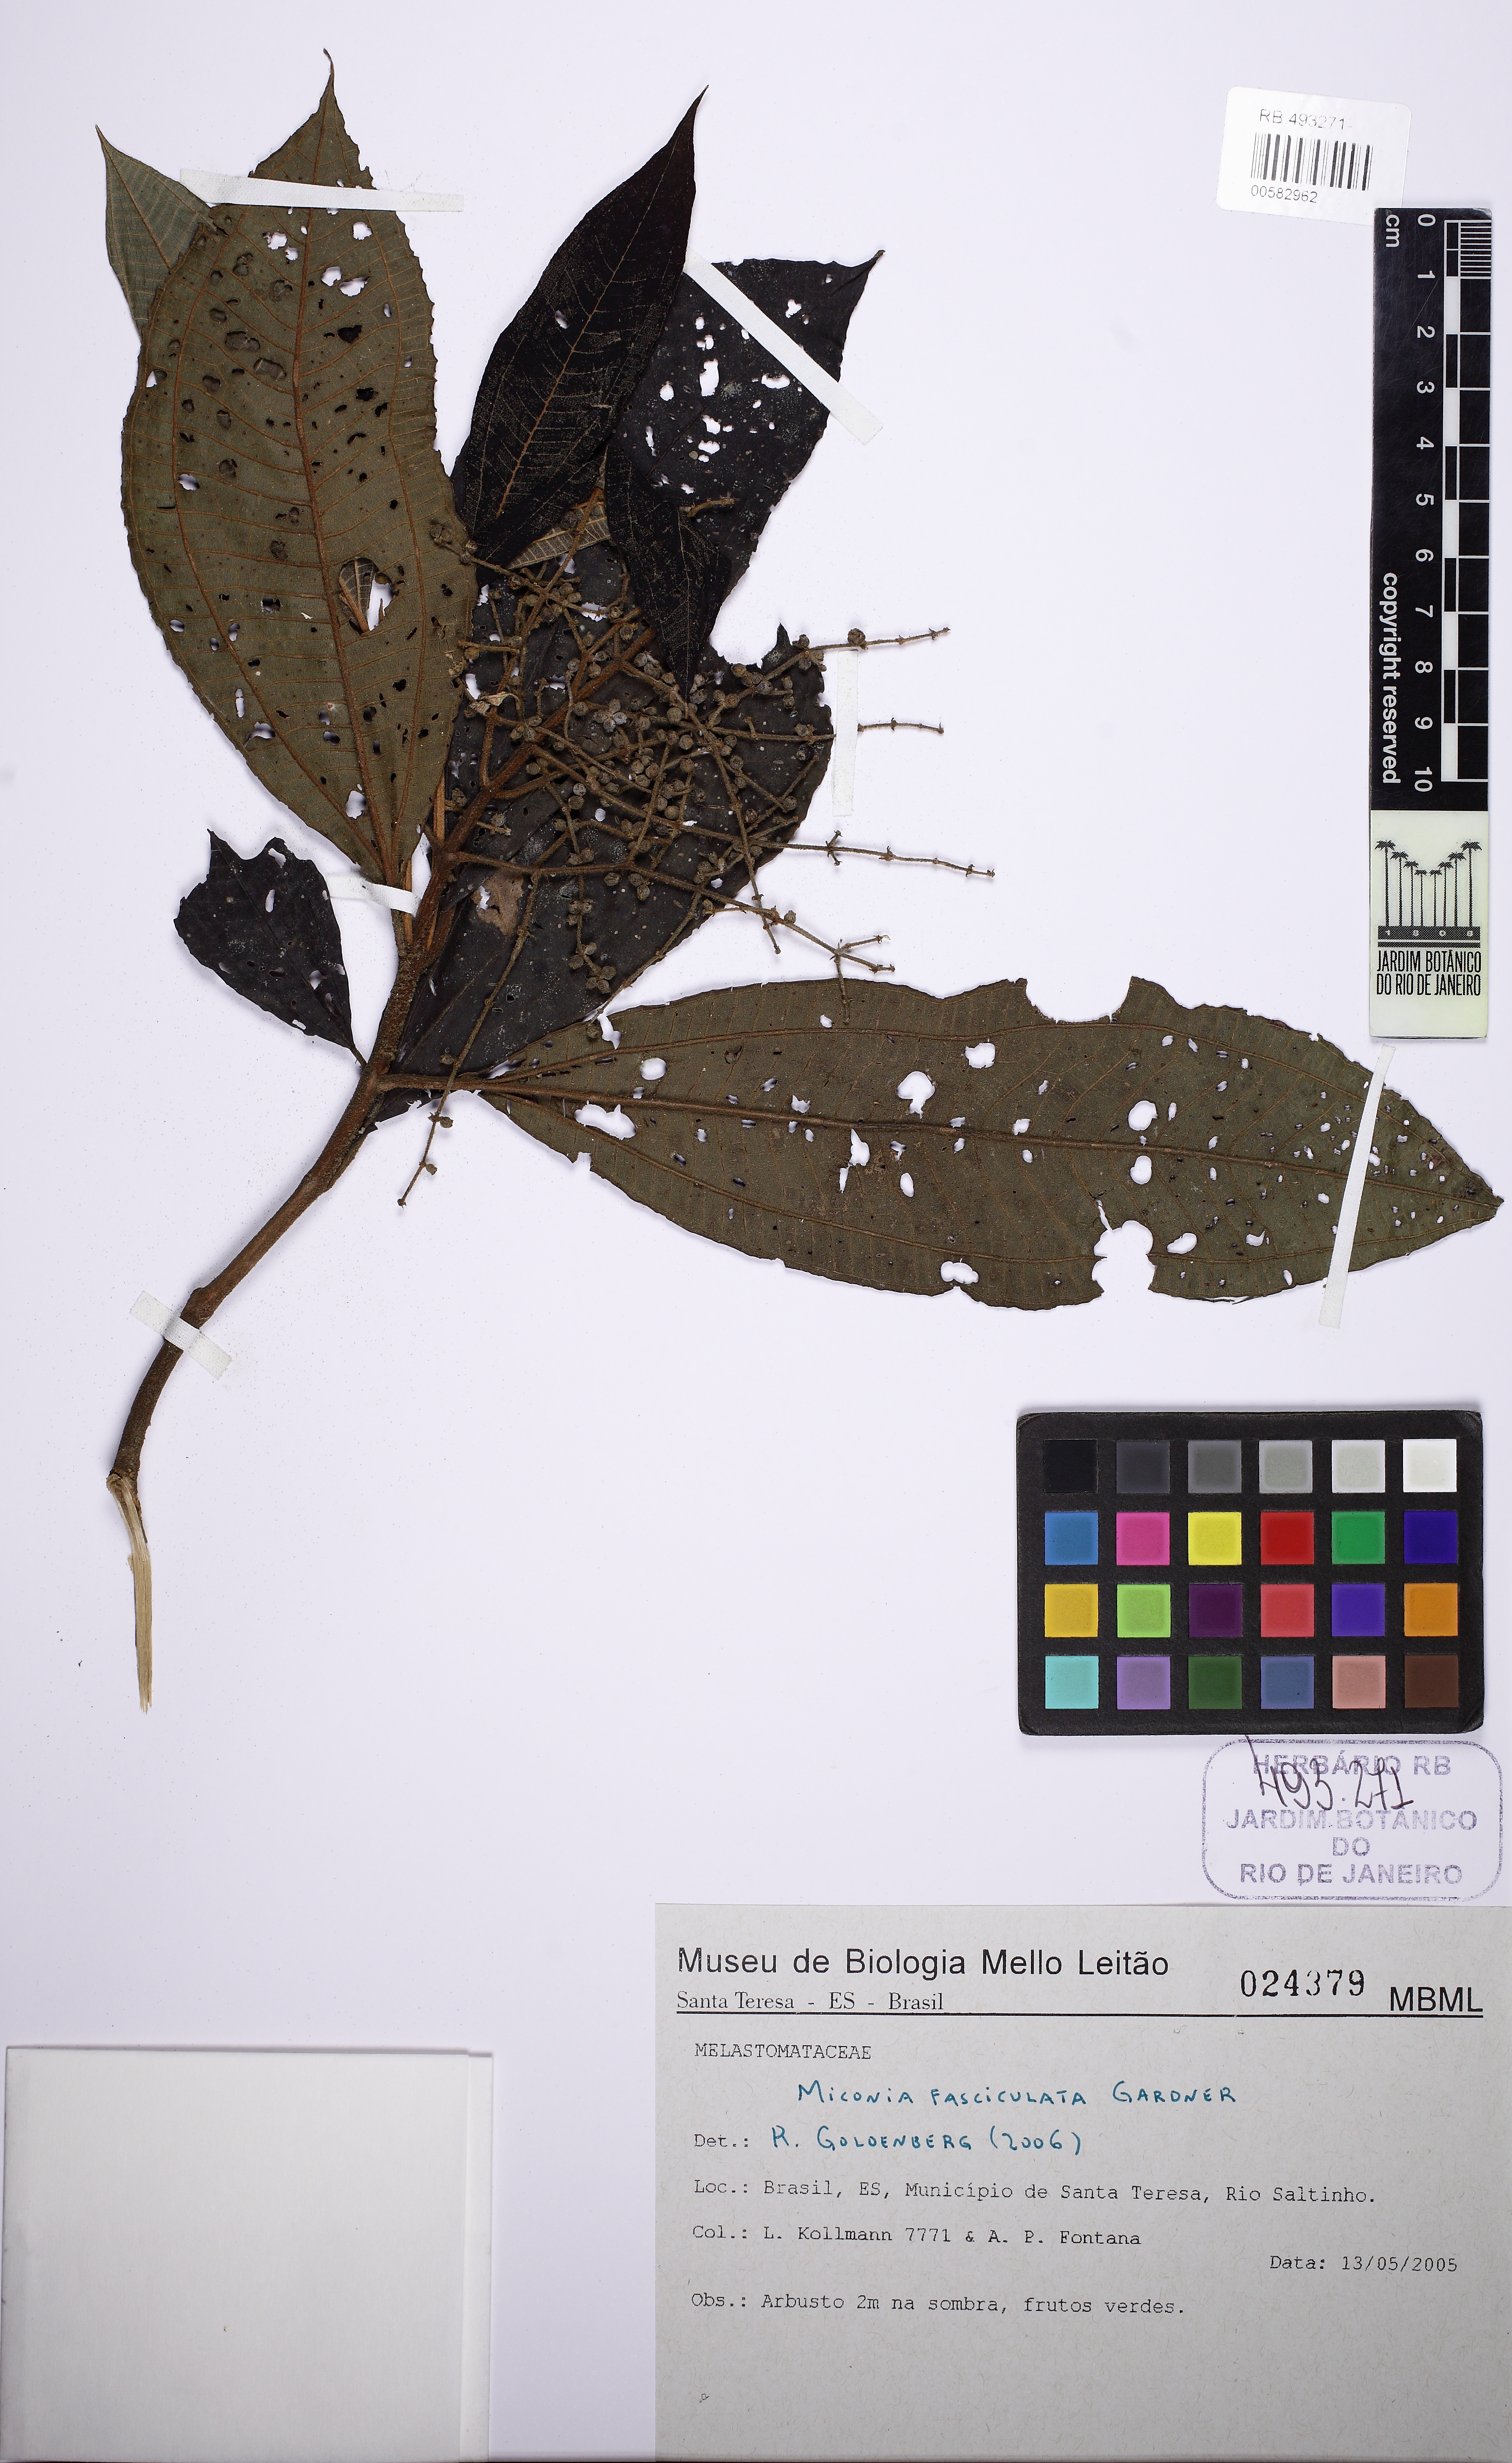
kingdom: Plantae
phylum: Tracheophyta
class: Magnoliopsida
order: Myrtales
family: Melastomataceae
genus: Miconia
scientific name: Miconia fasciculata
